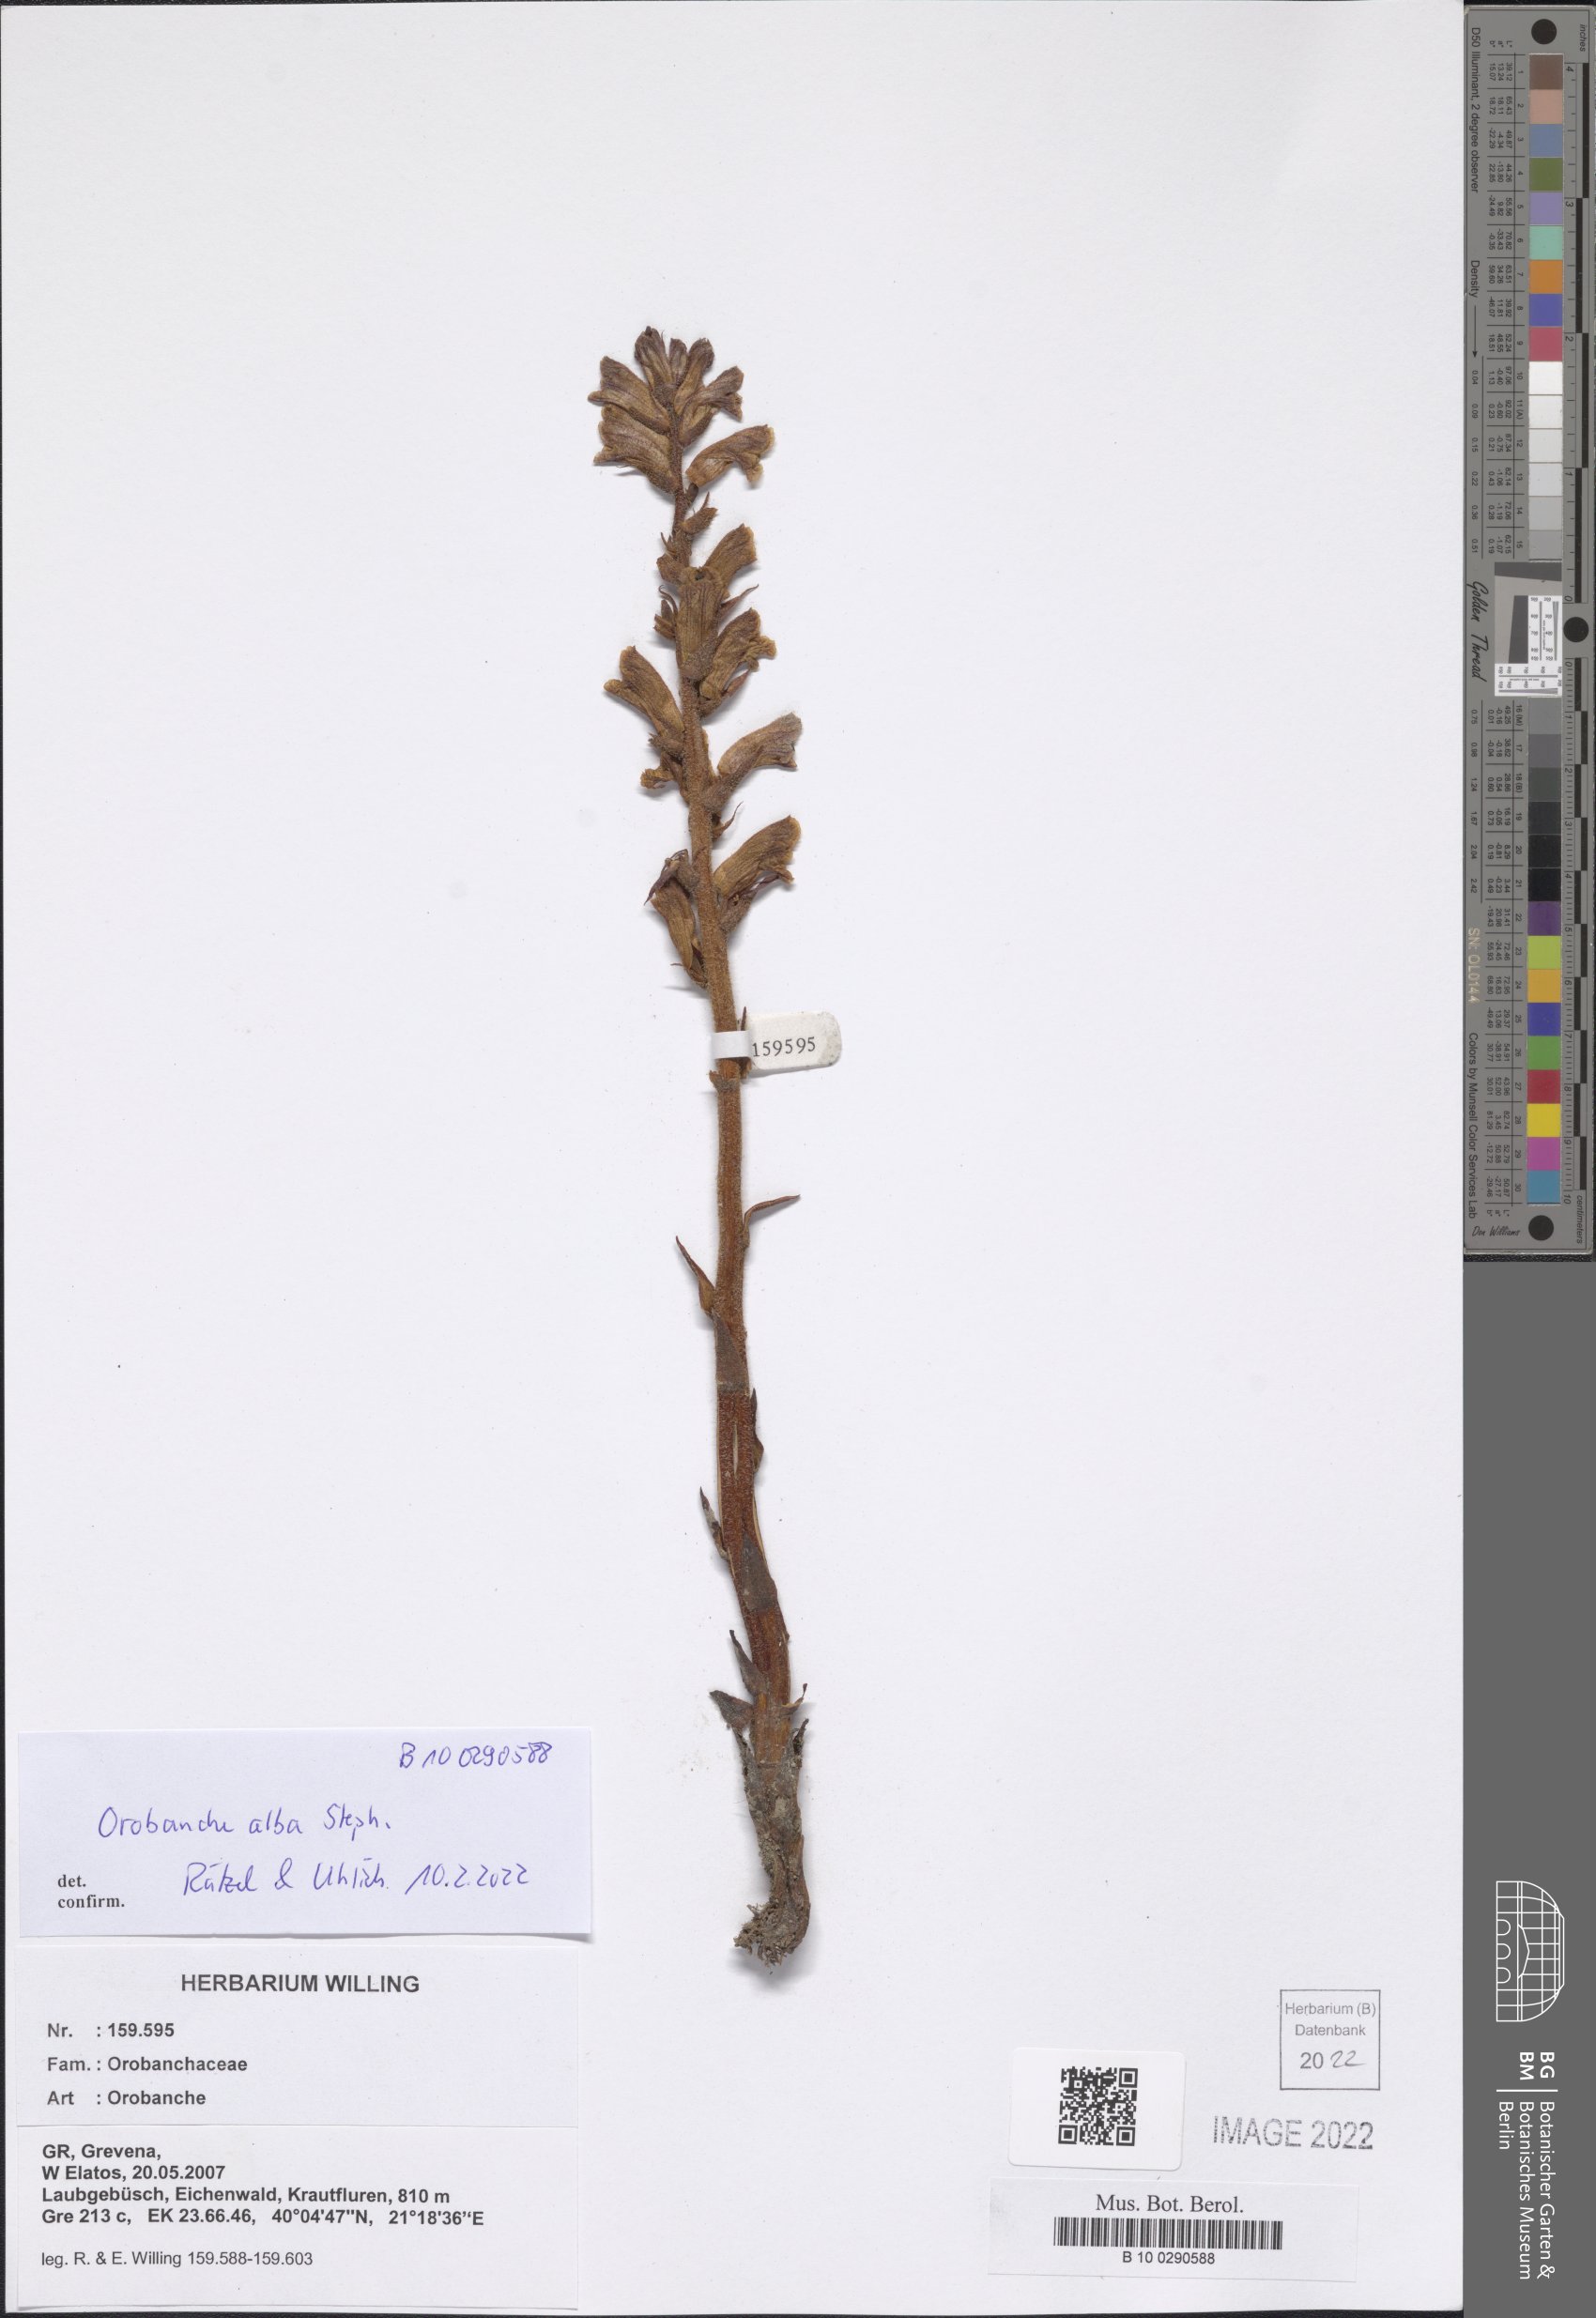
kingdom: Plantae
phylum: Tracheophyta
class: Magnoliopsida
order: Lamiales
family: Orobanchaceae
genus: Orobanche
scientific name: Orobanche alba
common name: Thyme broomrape
